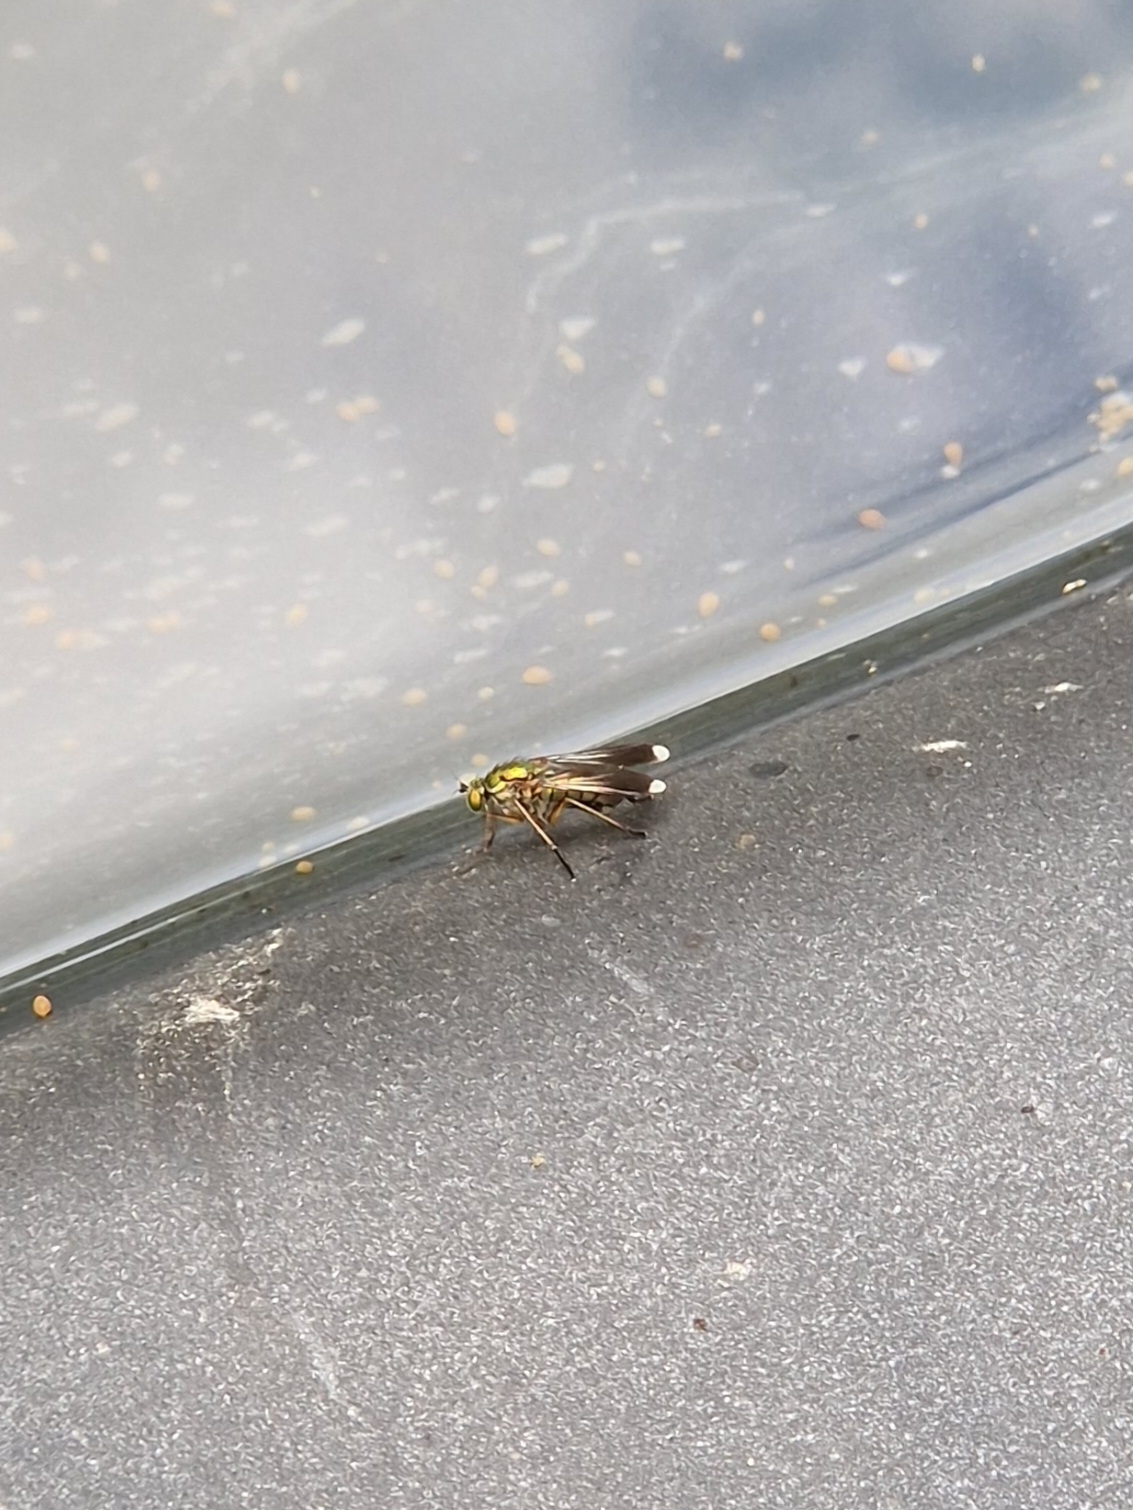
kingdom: Animalia
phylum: Arthropoda
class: Insecta
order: Diptera
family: Dolichopodidae
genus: Poecilobothrus
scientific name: Poecilobothrus nobilitatus
